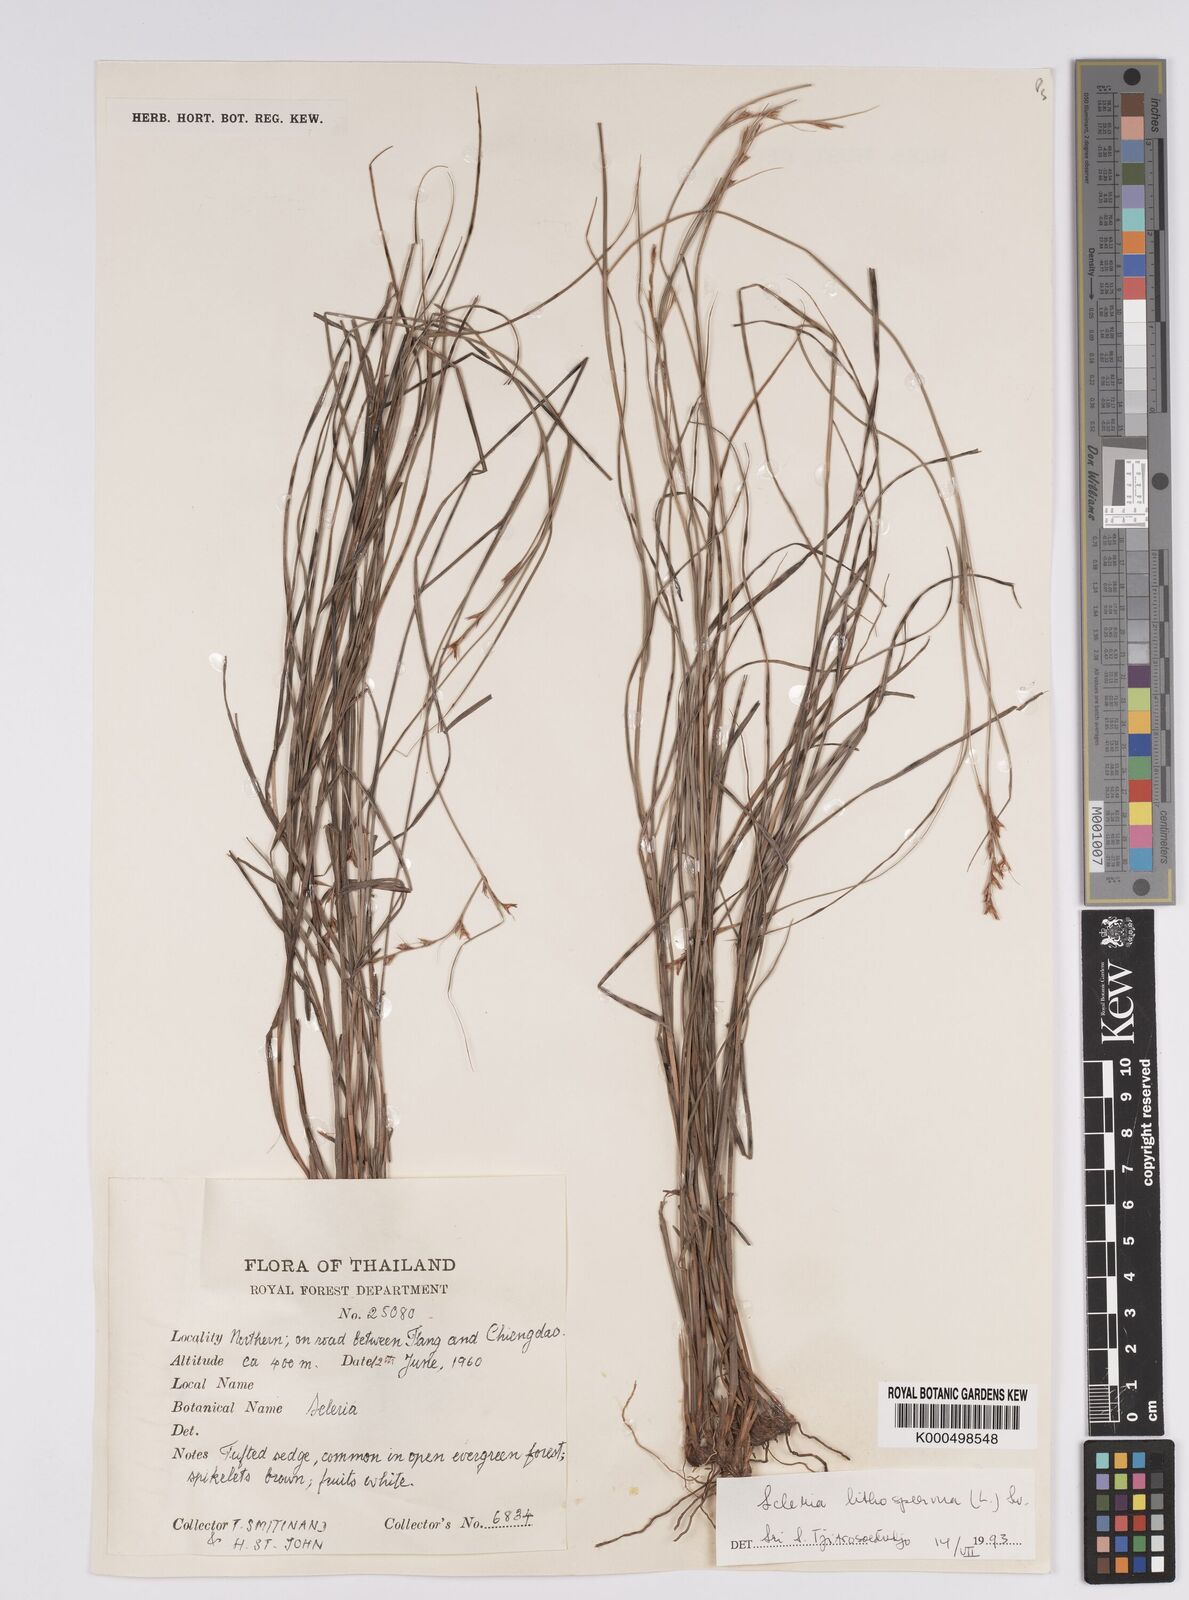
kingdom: Plantae
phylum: Tracheophyta
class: Liliopsida
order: Poales
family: Cyperaceae
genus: Scleria
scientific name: Scleria lithosperma
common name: Florida keys nut-rush
